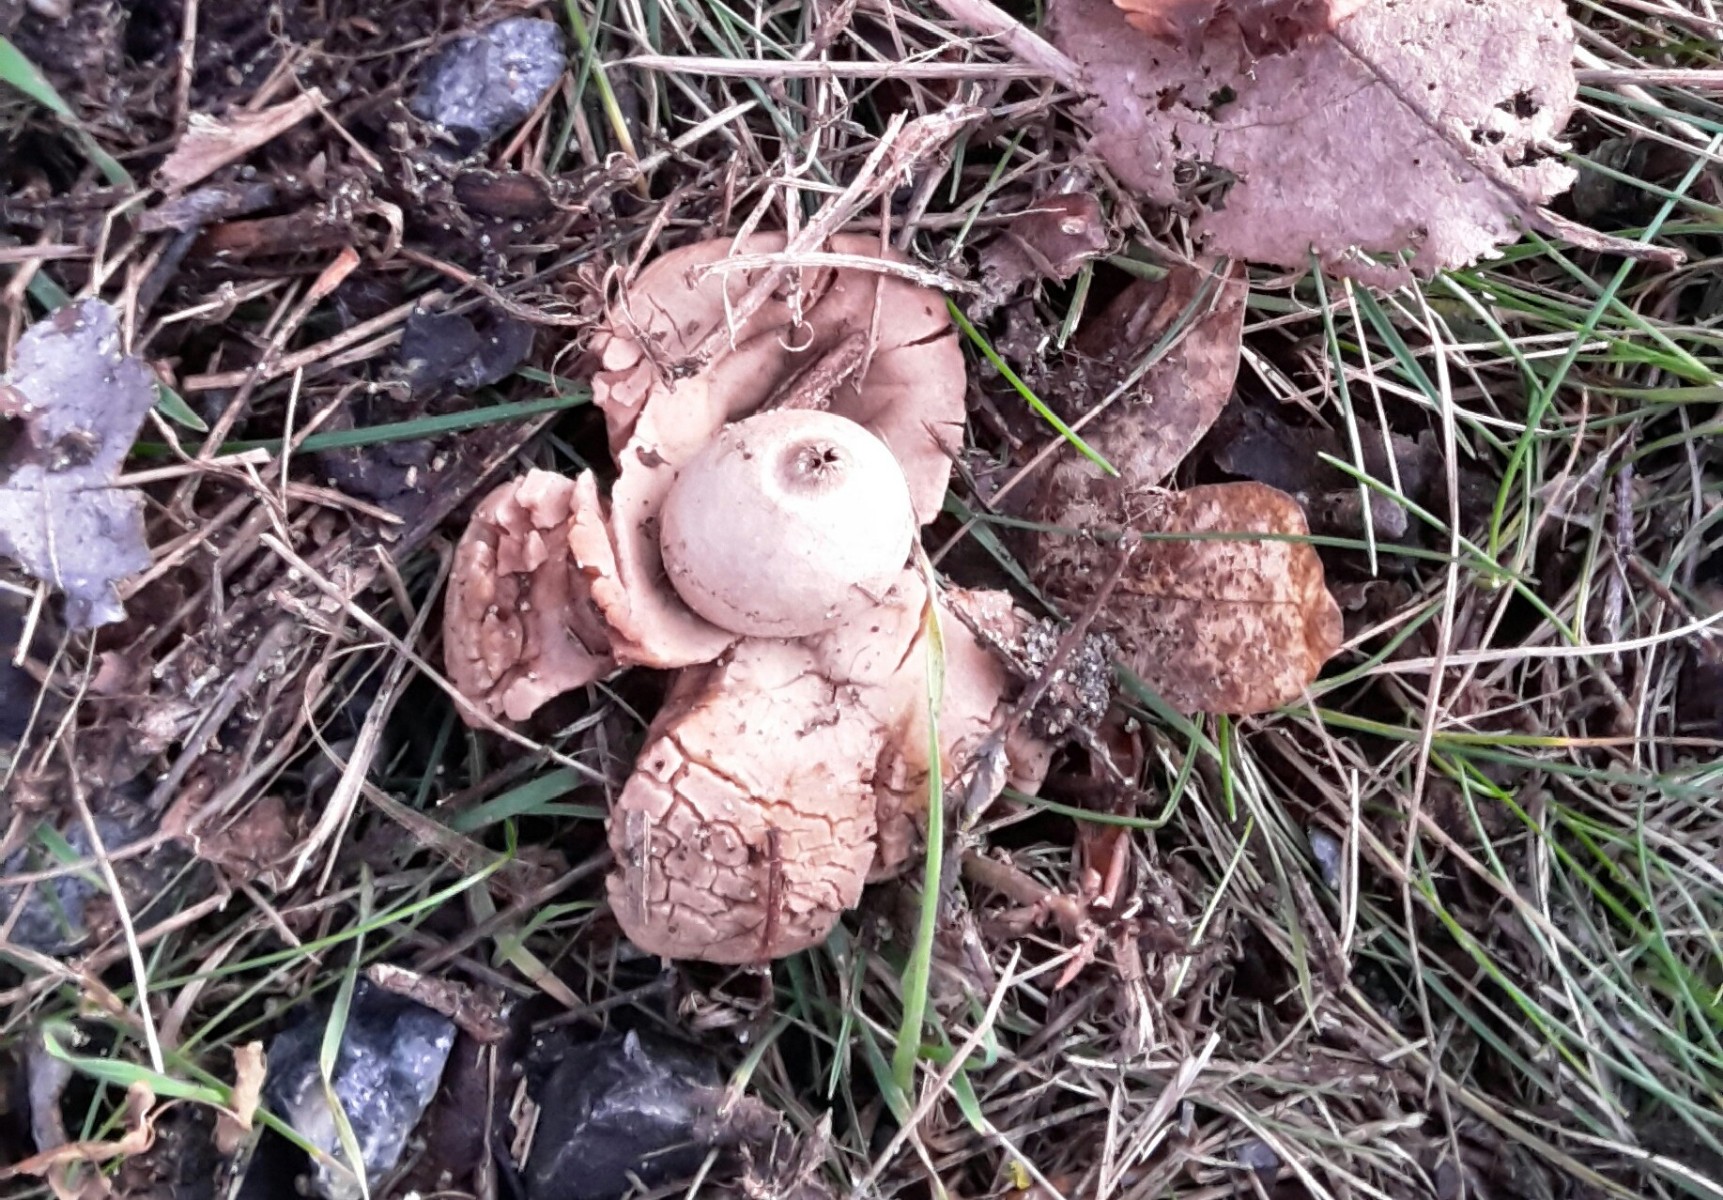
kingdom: Fungi
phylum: Basidiomycota
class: Agaricomycetes
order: Geastrales
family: Geastraceae
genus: Geastrum
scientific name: Geastrum michelianum
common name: kødet stjernebold
